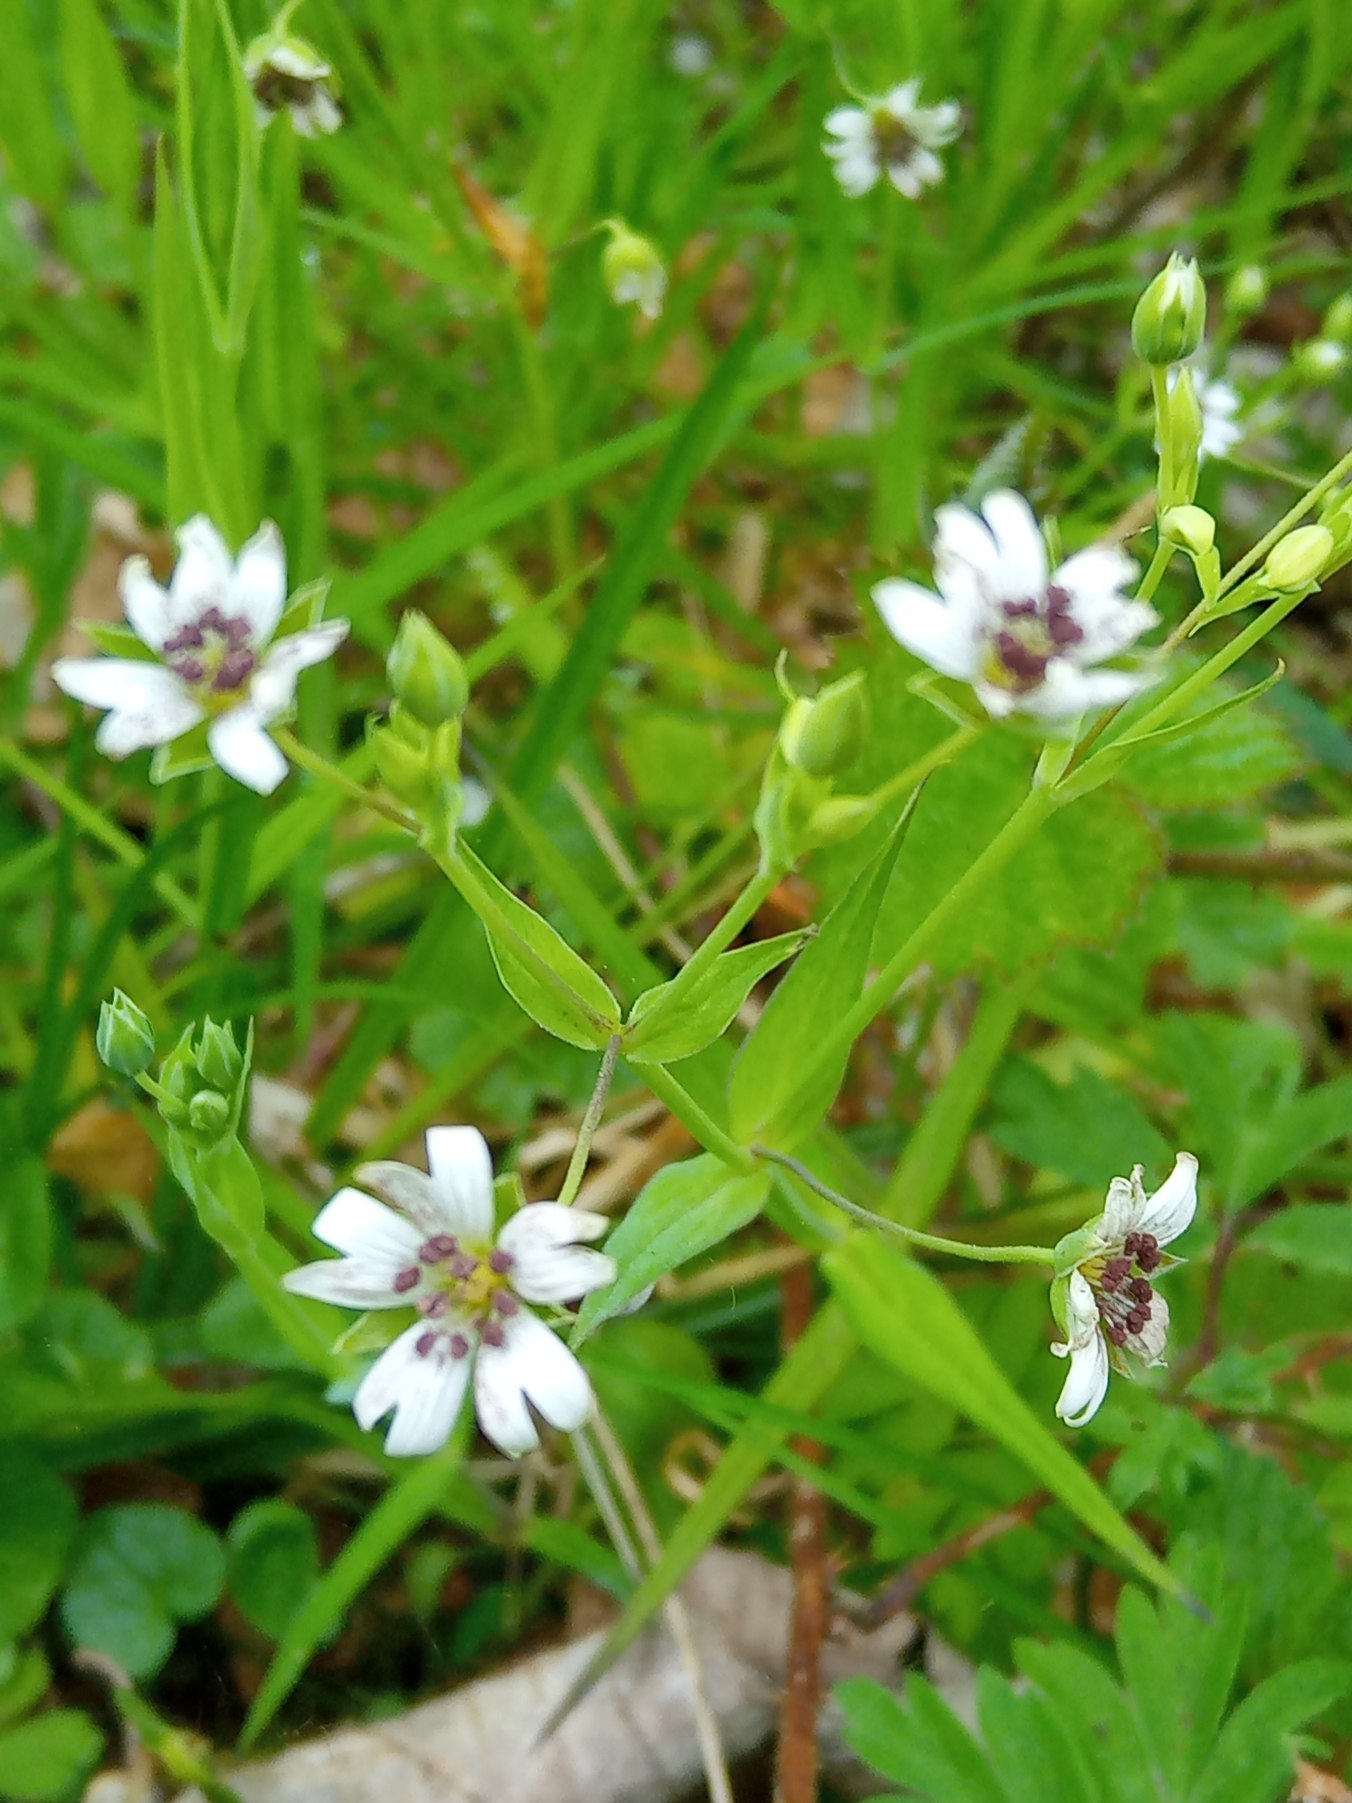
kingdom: Plantae
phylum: Tracheophyta
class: Magnoliopsida
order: Caryophyllales
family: Caryophyllaceae
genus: Rabelera
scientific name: Rabelera holostea
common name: Stor fladstjerne
